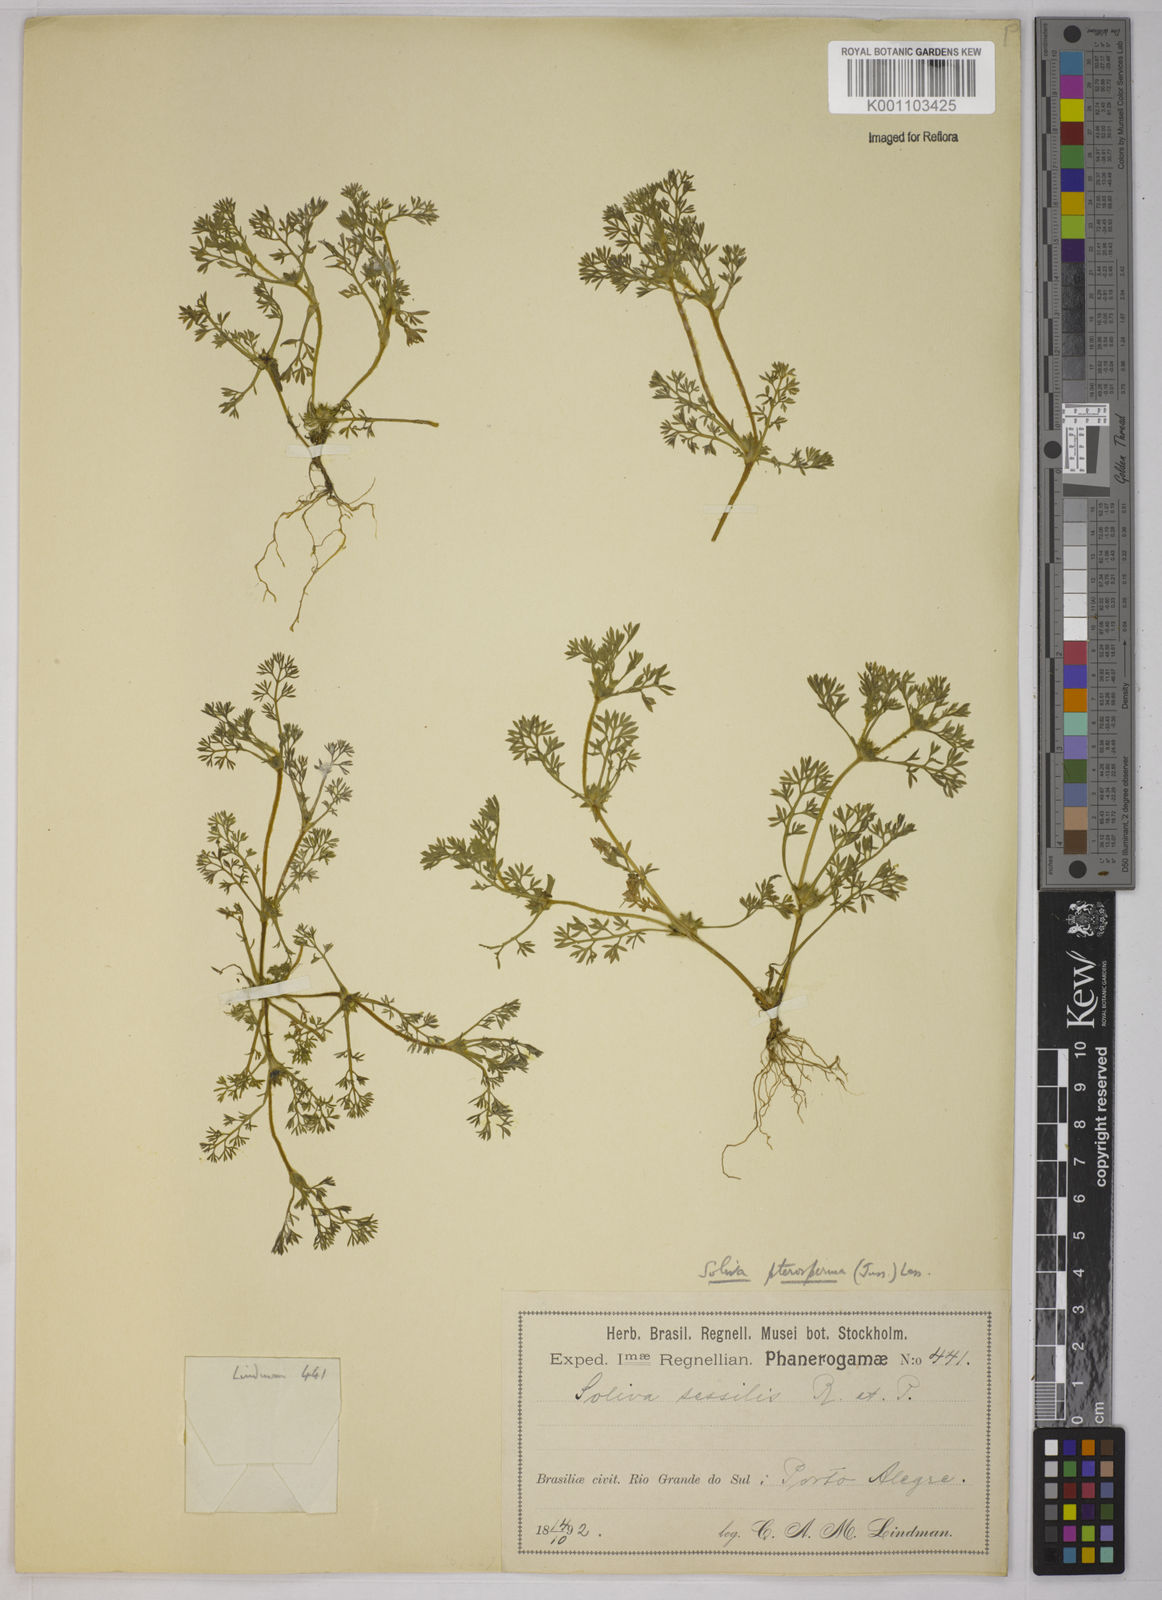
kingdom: Plantae
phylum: Tracheophyta
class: Magnoliopsida
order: Asterales
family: Asteraceae
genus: Soliva
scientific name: Soliva sessilis
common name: Field burrweed
